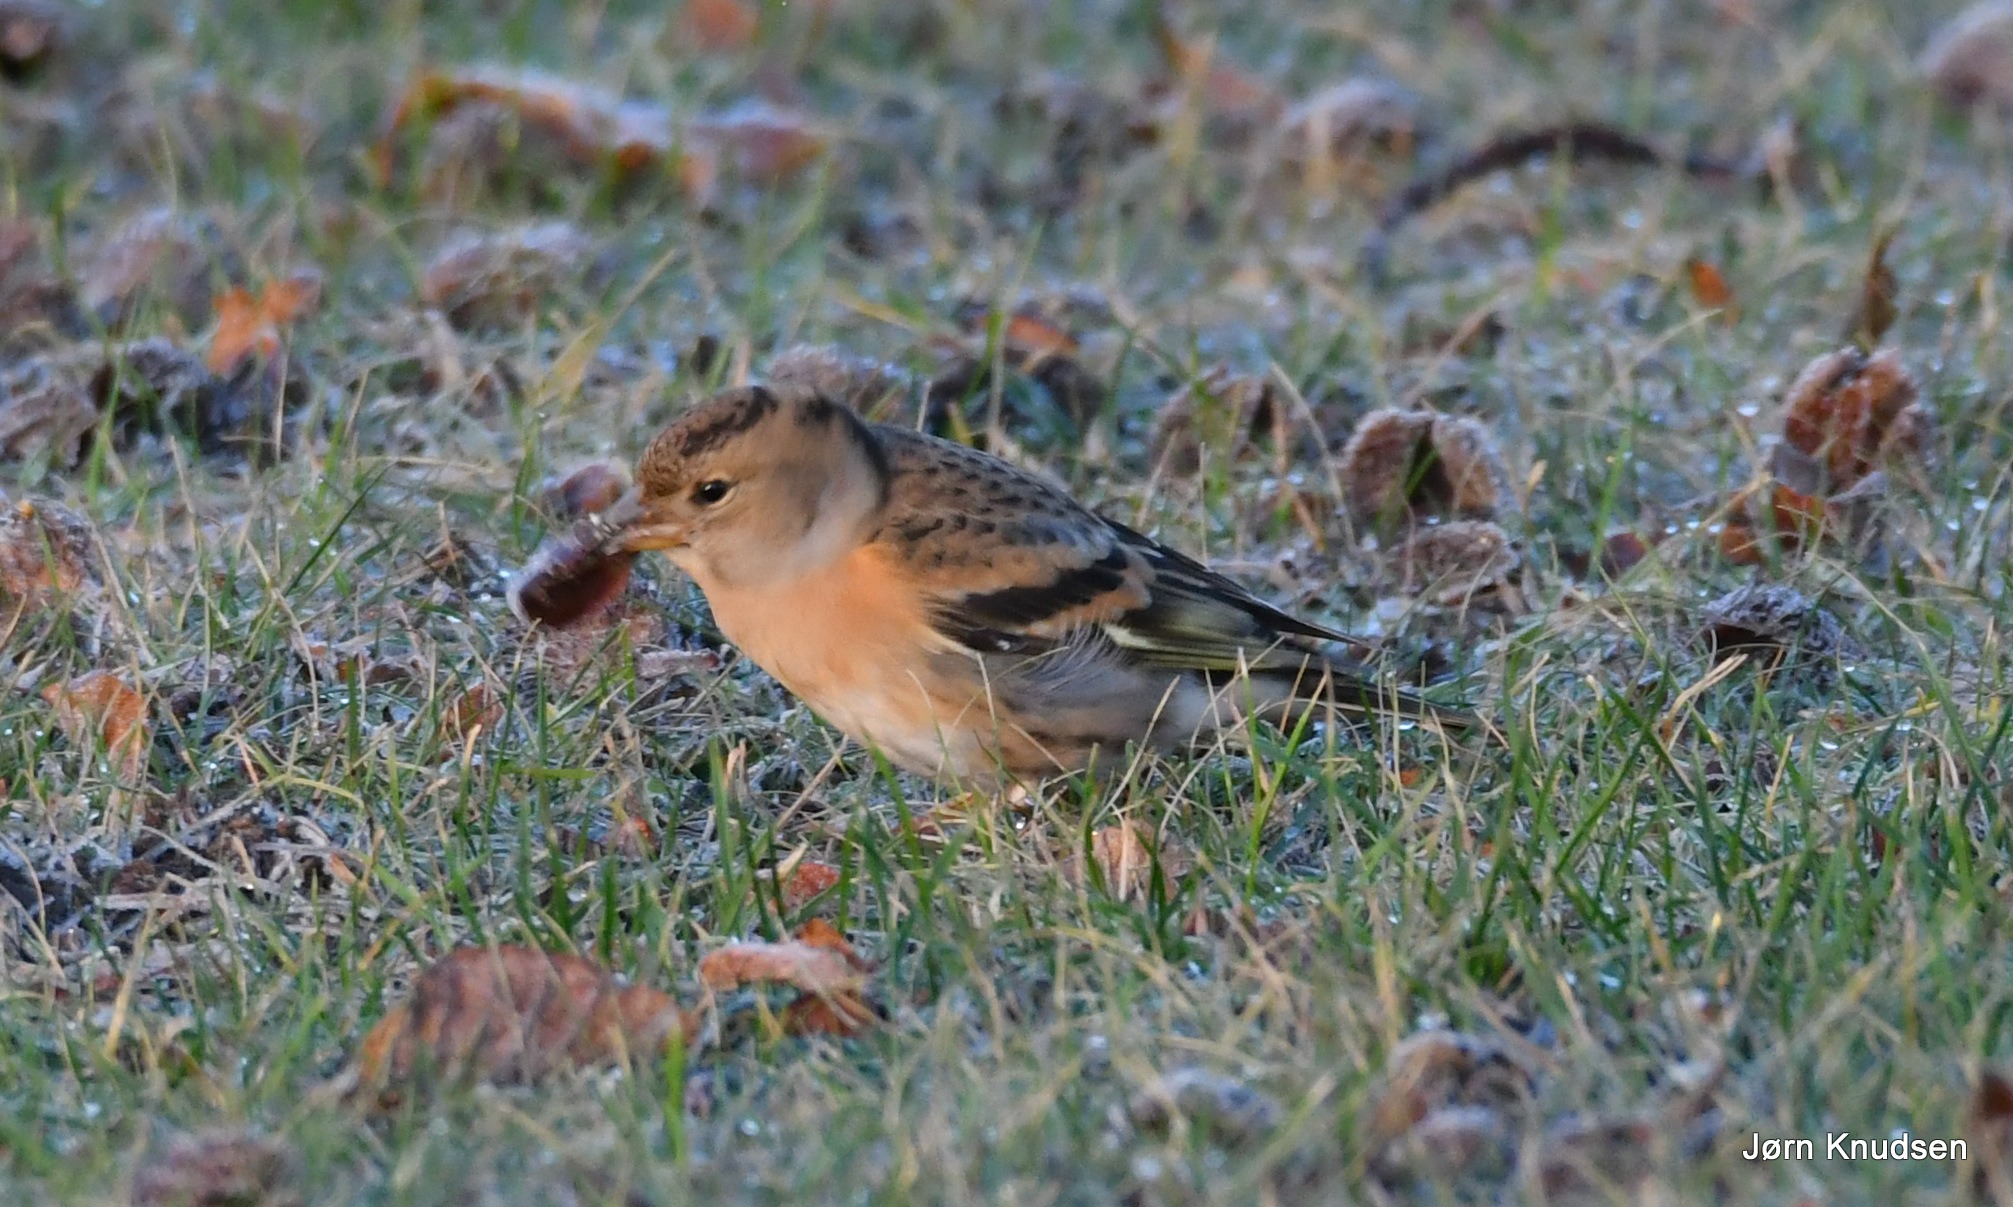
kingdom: Animalia
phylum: Chordata
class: Aves
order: Passeriformes
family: Fringillidae
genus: Fringilla
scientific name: Fringilla montifringilla
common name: Kvækerfinke
